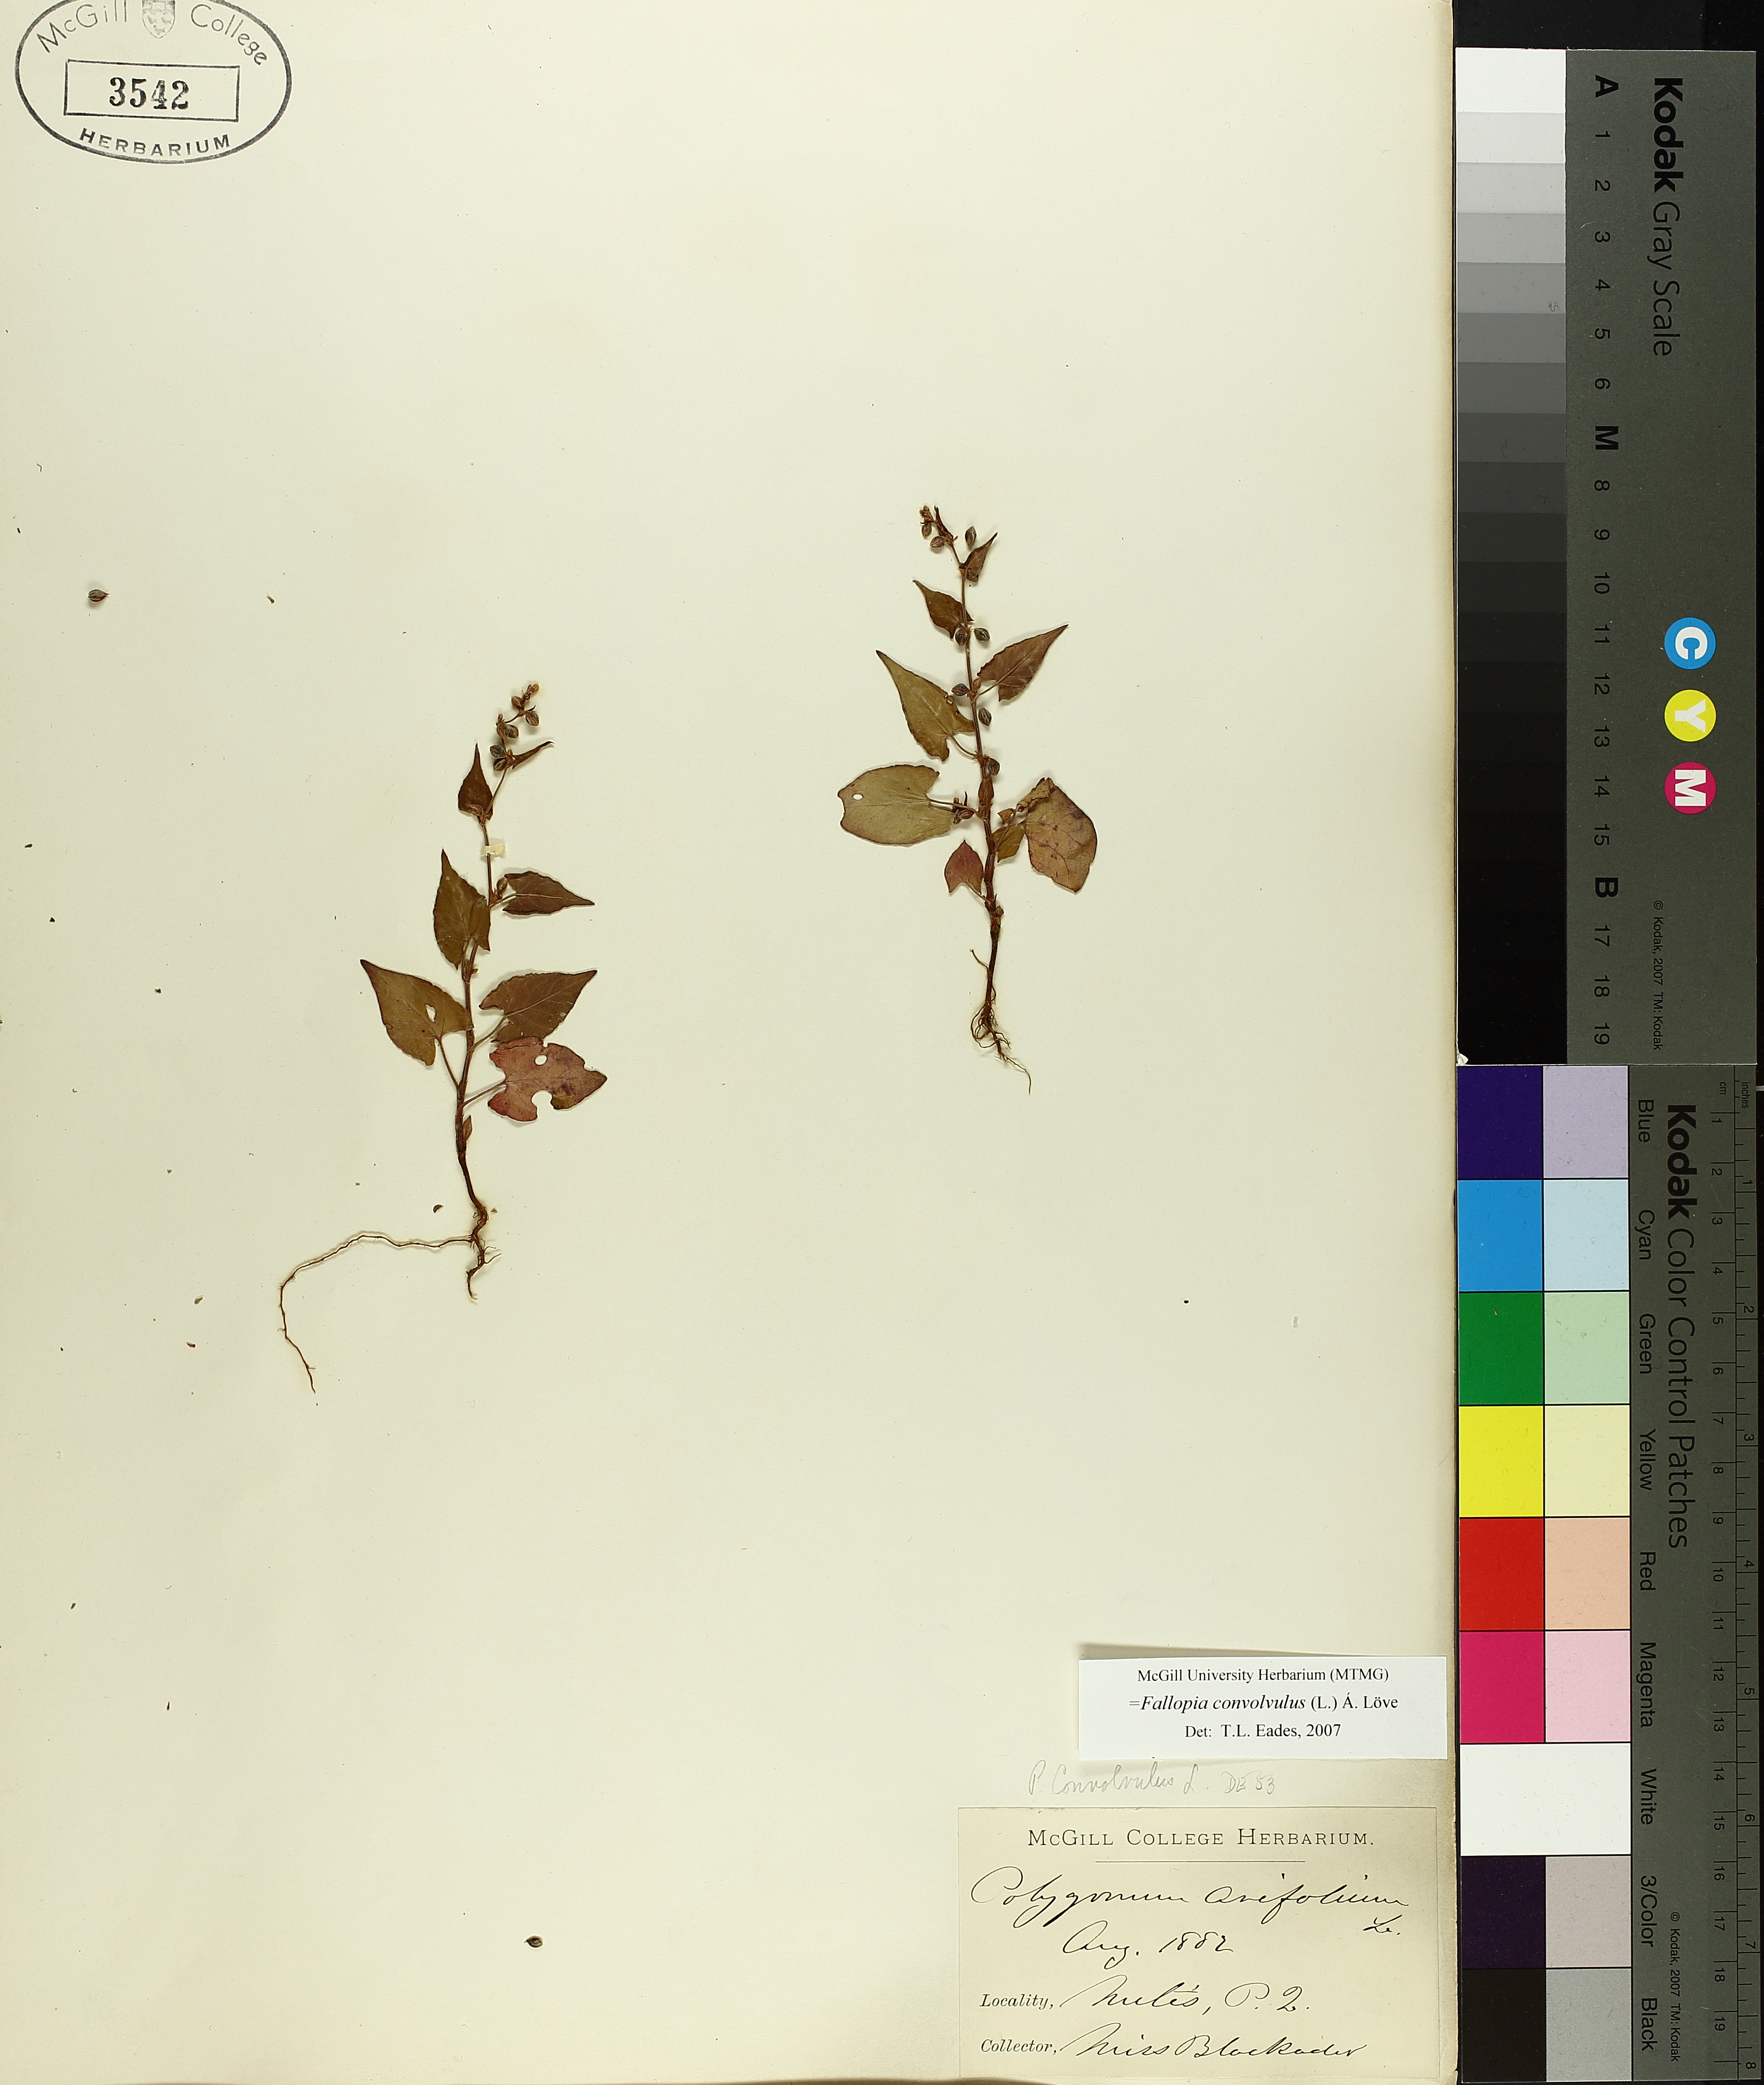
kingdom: Plantae
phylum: Tracheophyta
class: Magnoliopsida
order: Caryophyllales
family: Polygonaceae
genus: Fallopia
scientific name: Fallopia convolvulus
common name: Black bindweed
